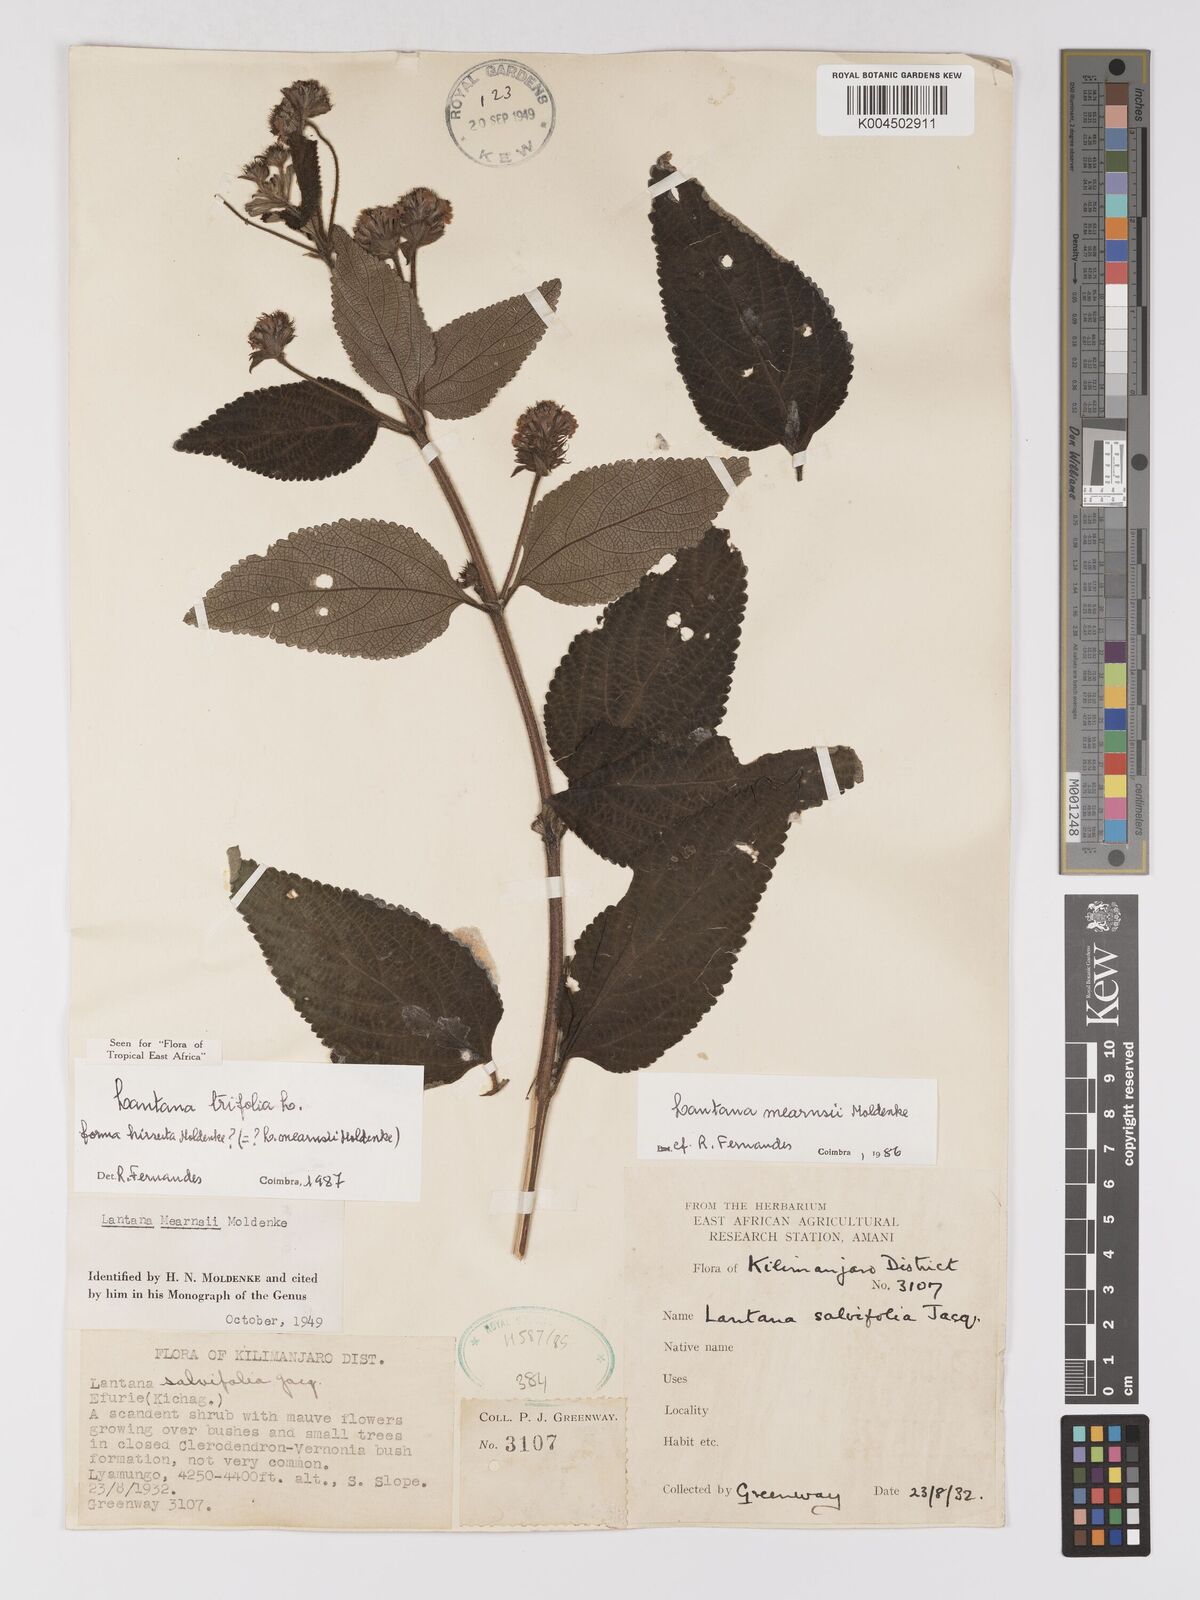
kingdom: Plantae
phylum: Tracheophyta
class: Magnoliopsida
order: Lamiales
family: Verbenaceae
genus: Lantana
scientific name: Lantana trifolia
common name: Sweet-sage
